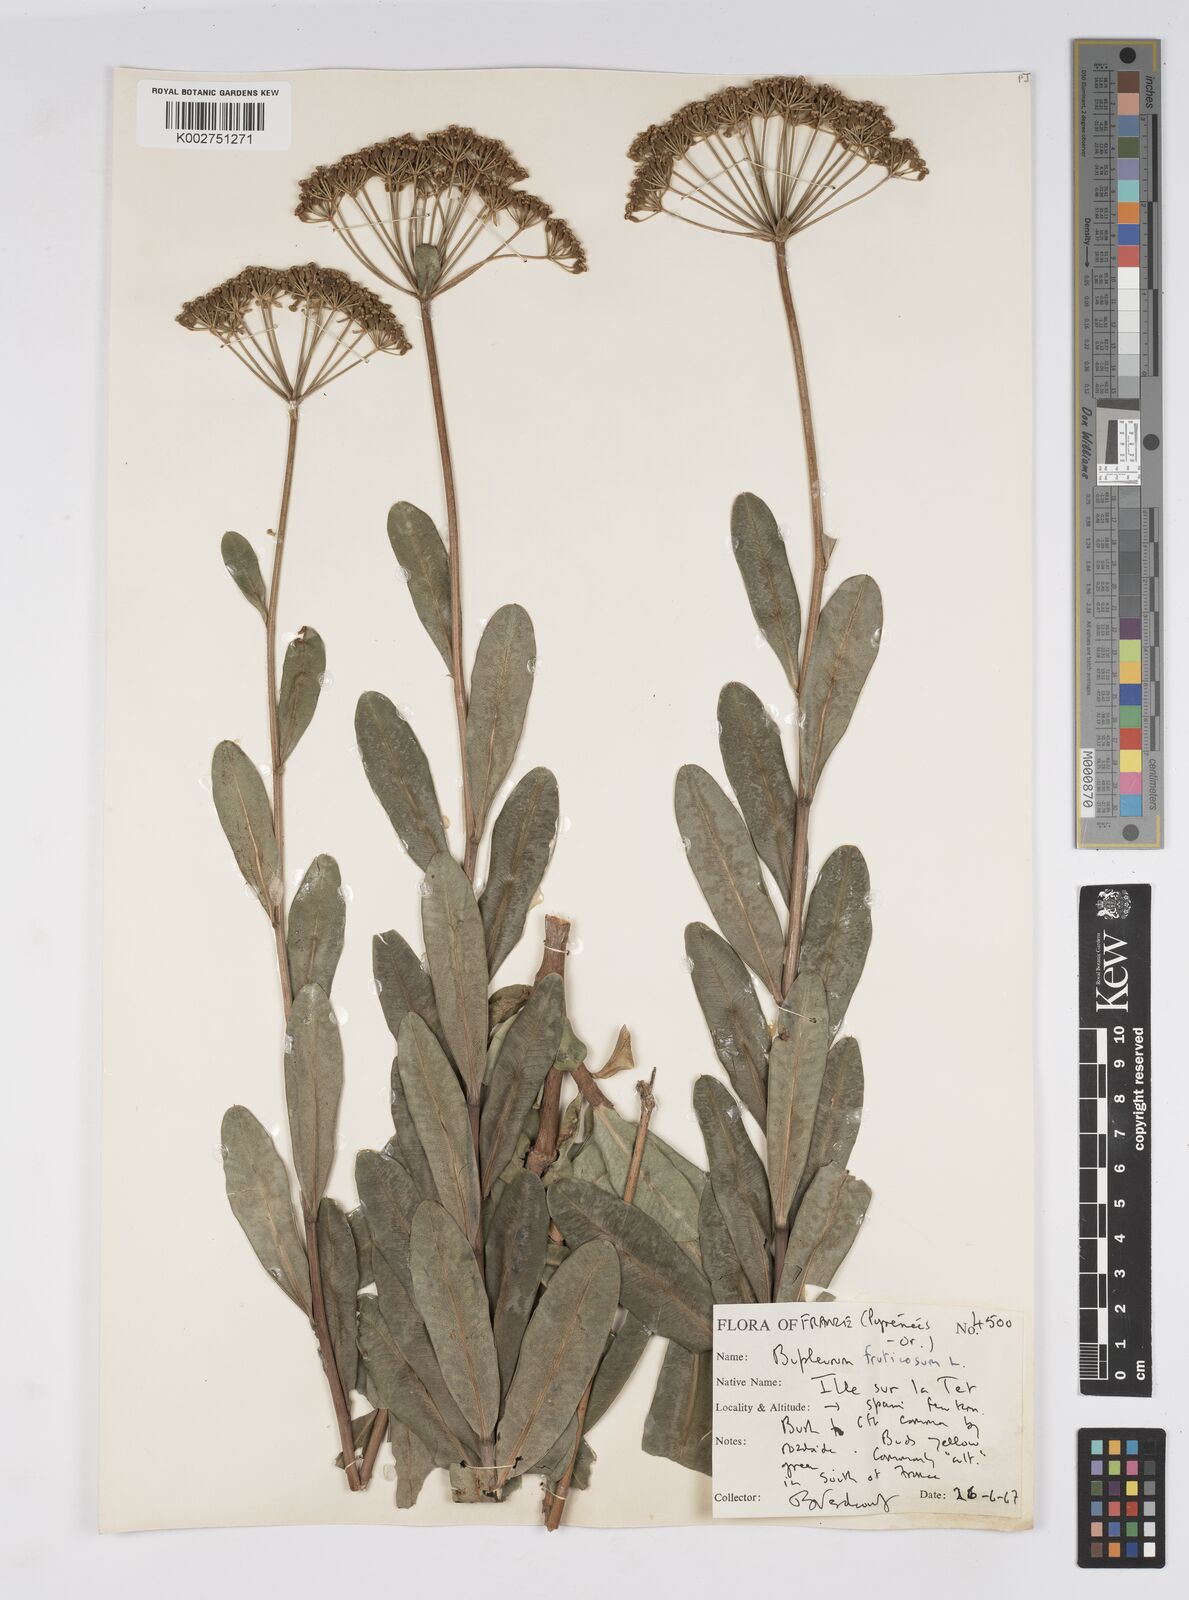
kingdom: Plantae
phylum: Tracheophyta
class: Magnoliopsida
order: Apiales
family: Apiaceae
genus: Bupleurum
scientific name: Bupleurum fruticosum
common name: Shrubby hare's-ear
